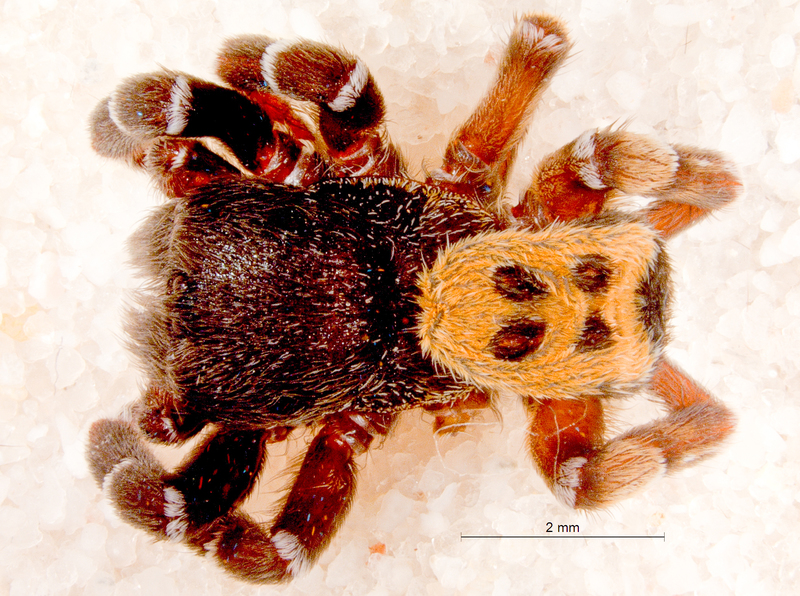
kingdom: Animalia
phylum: Arthropoda
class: Arachnida
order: Araneae
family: Eresidae
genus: Eresus
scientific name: Eresus kollari
